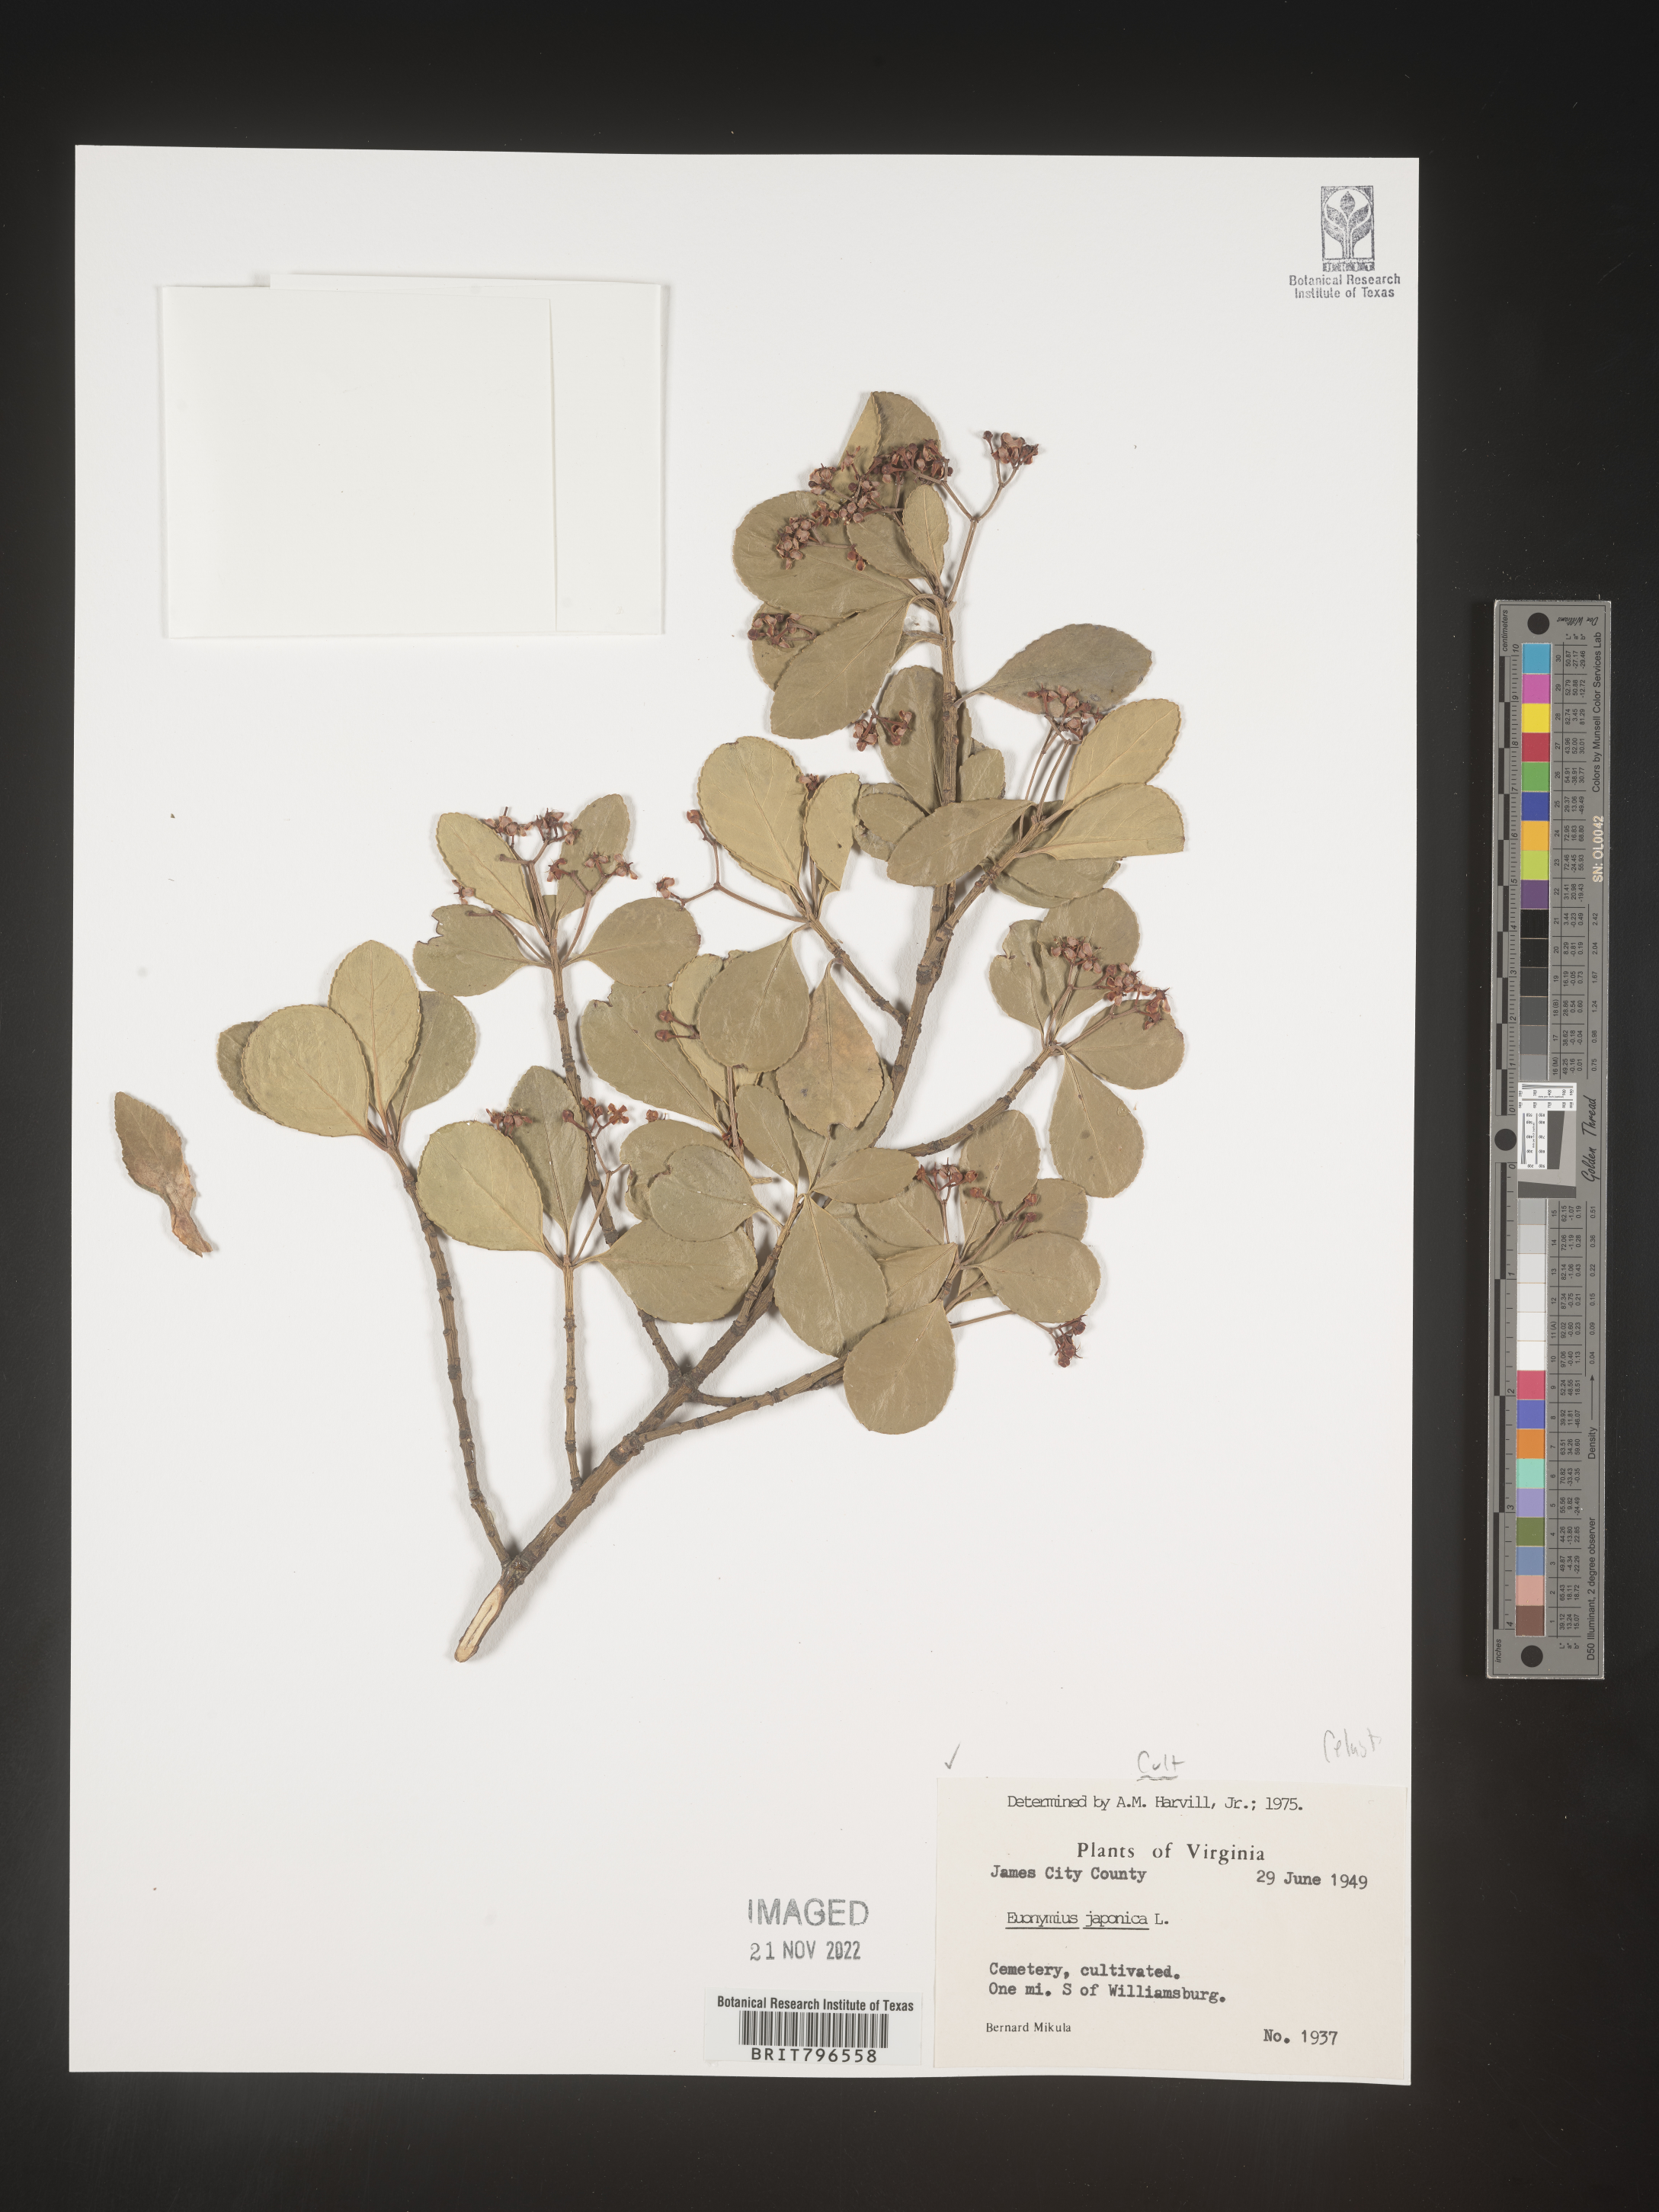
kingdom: Plantae
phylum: Tracheophyta
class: Magnoliopsida
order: Celastrales
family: Celastraceae
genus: Euonymus
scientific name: Euonymus
